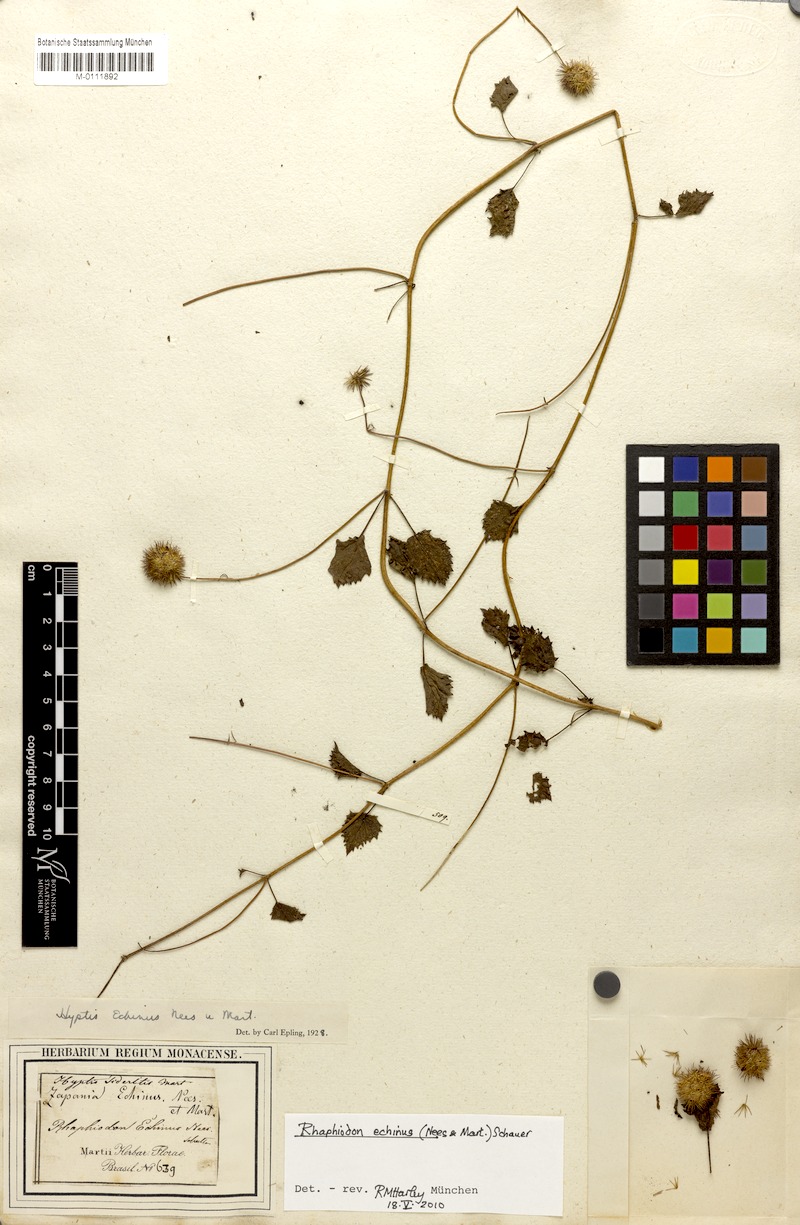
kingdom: Plantae
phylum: Tracheophyta
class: Magnoliopsida
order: Lamiales
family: Lamiaceae
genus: Rhaphiodon
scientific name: Rhaphiodon echinus
